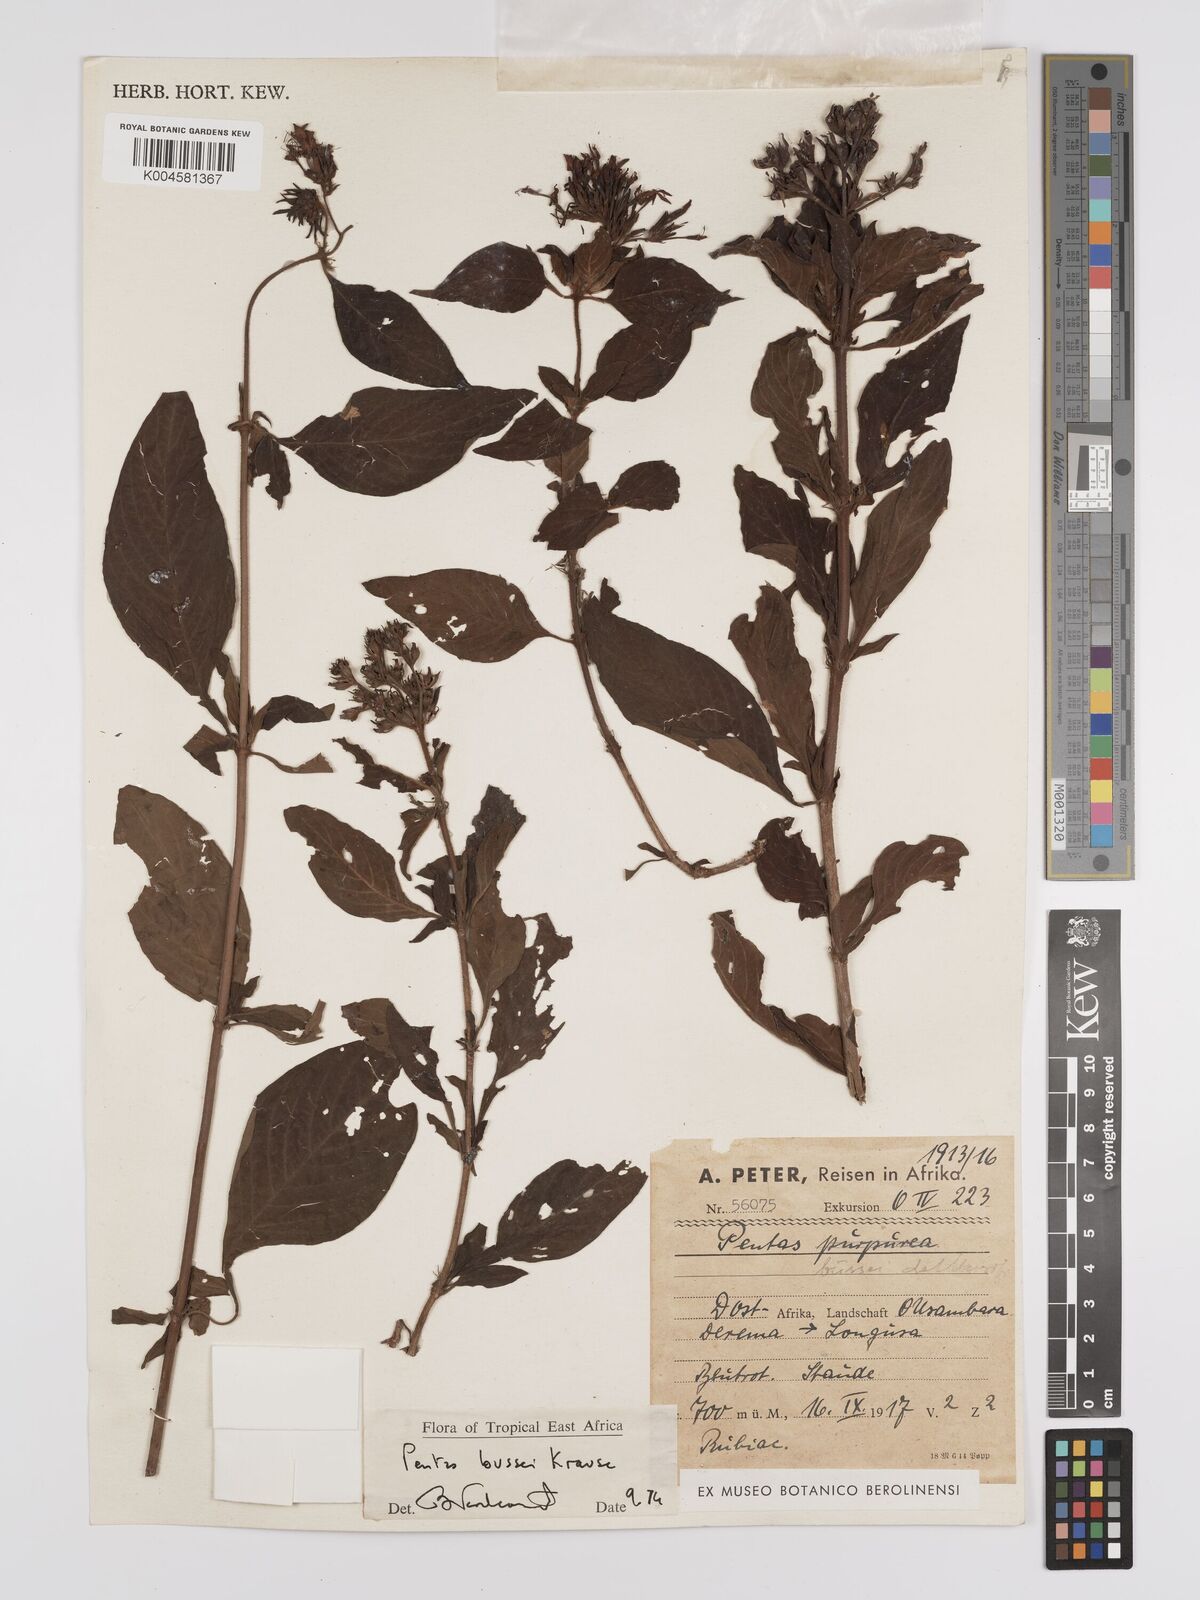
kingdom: Plantae
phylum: Tracheophyta
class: Magnoliopsida
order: Gentianales
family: Rubiaceae
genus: Rhodopentas
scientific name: Rhodopentas bussei
